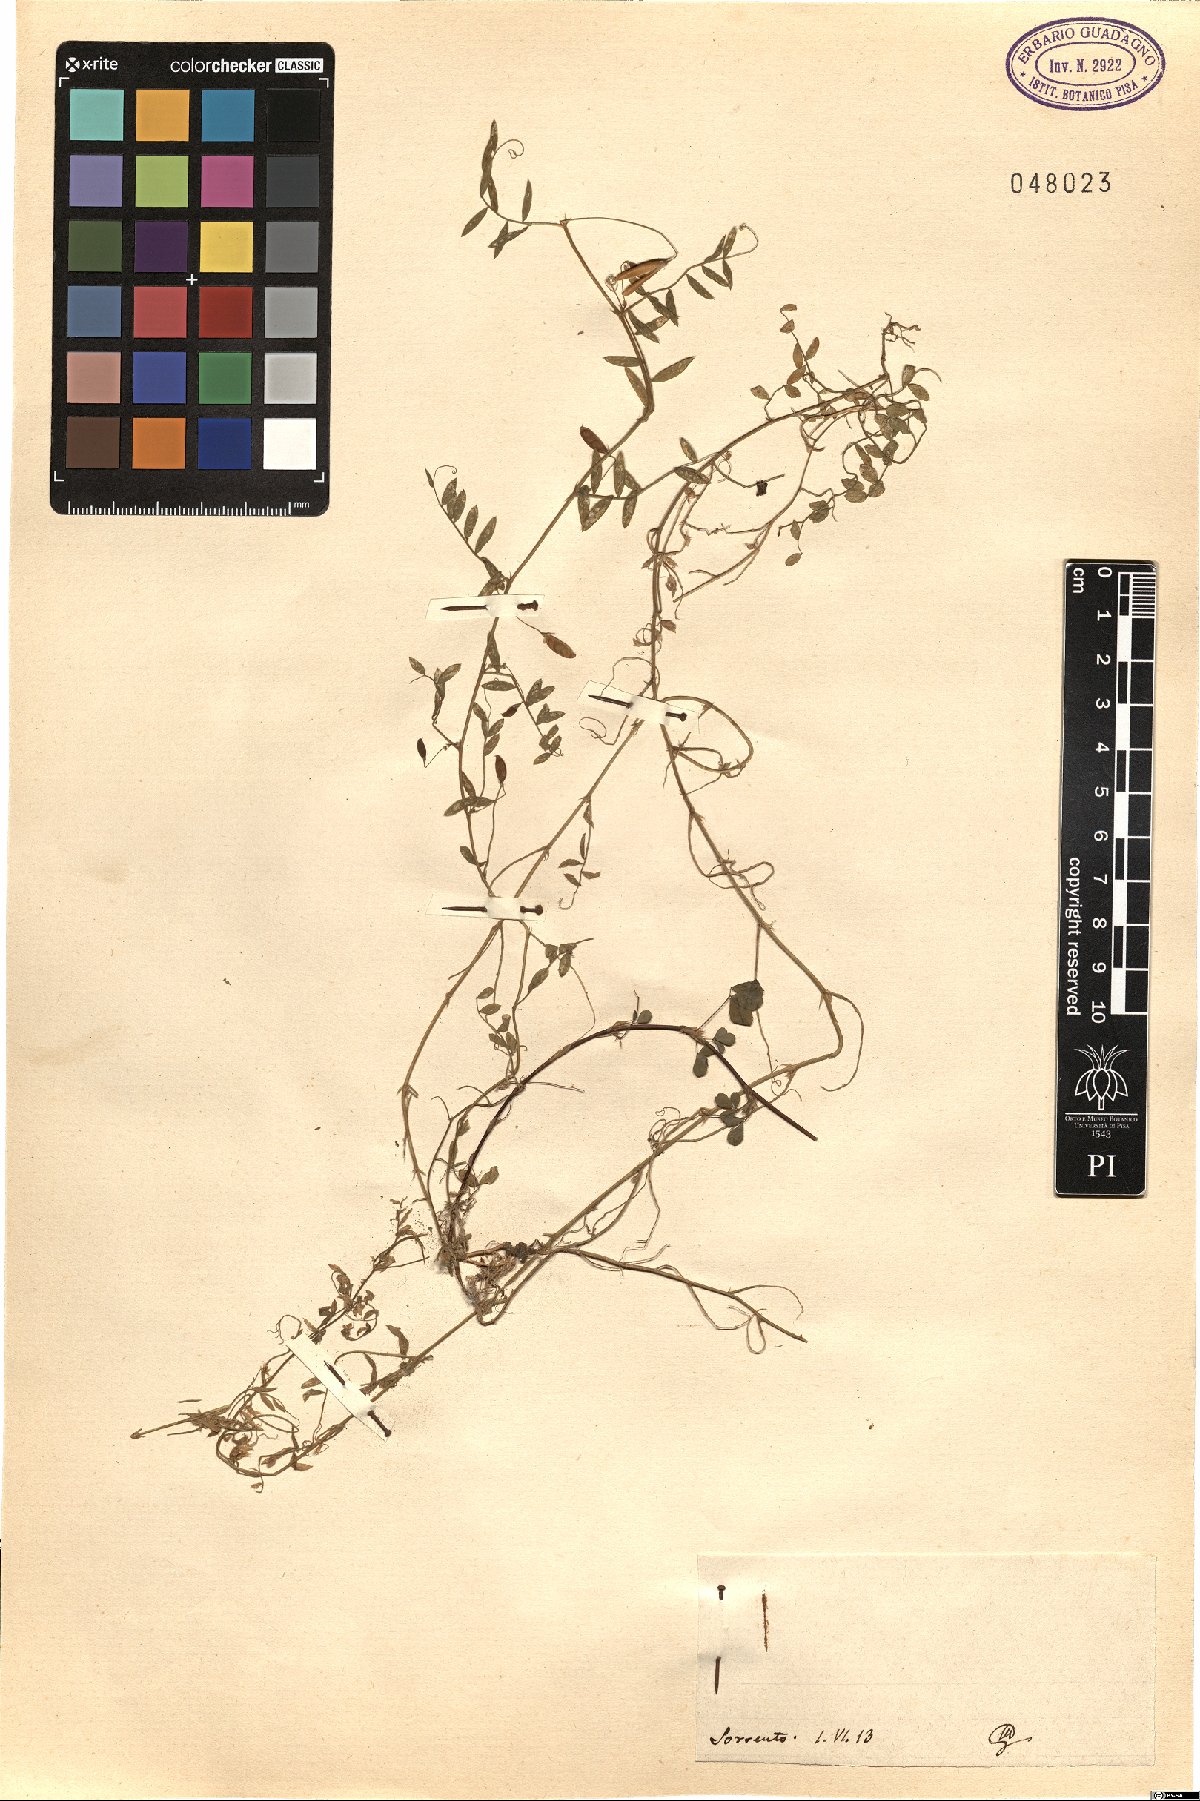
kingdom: Plantae
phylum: Tracheophyta
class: Magnoliopsida
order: Fabales
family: Fabaceae
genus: Vicia
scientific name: Vicia
